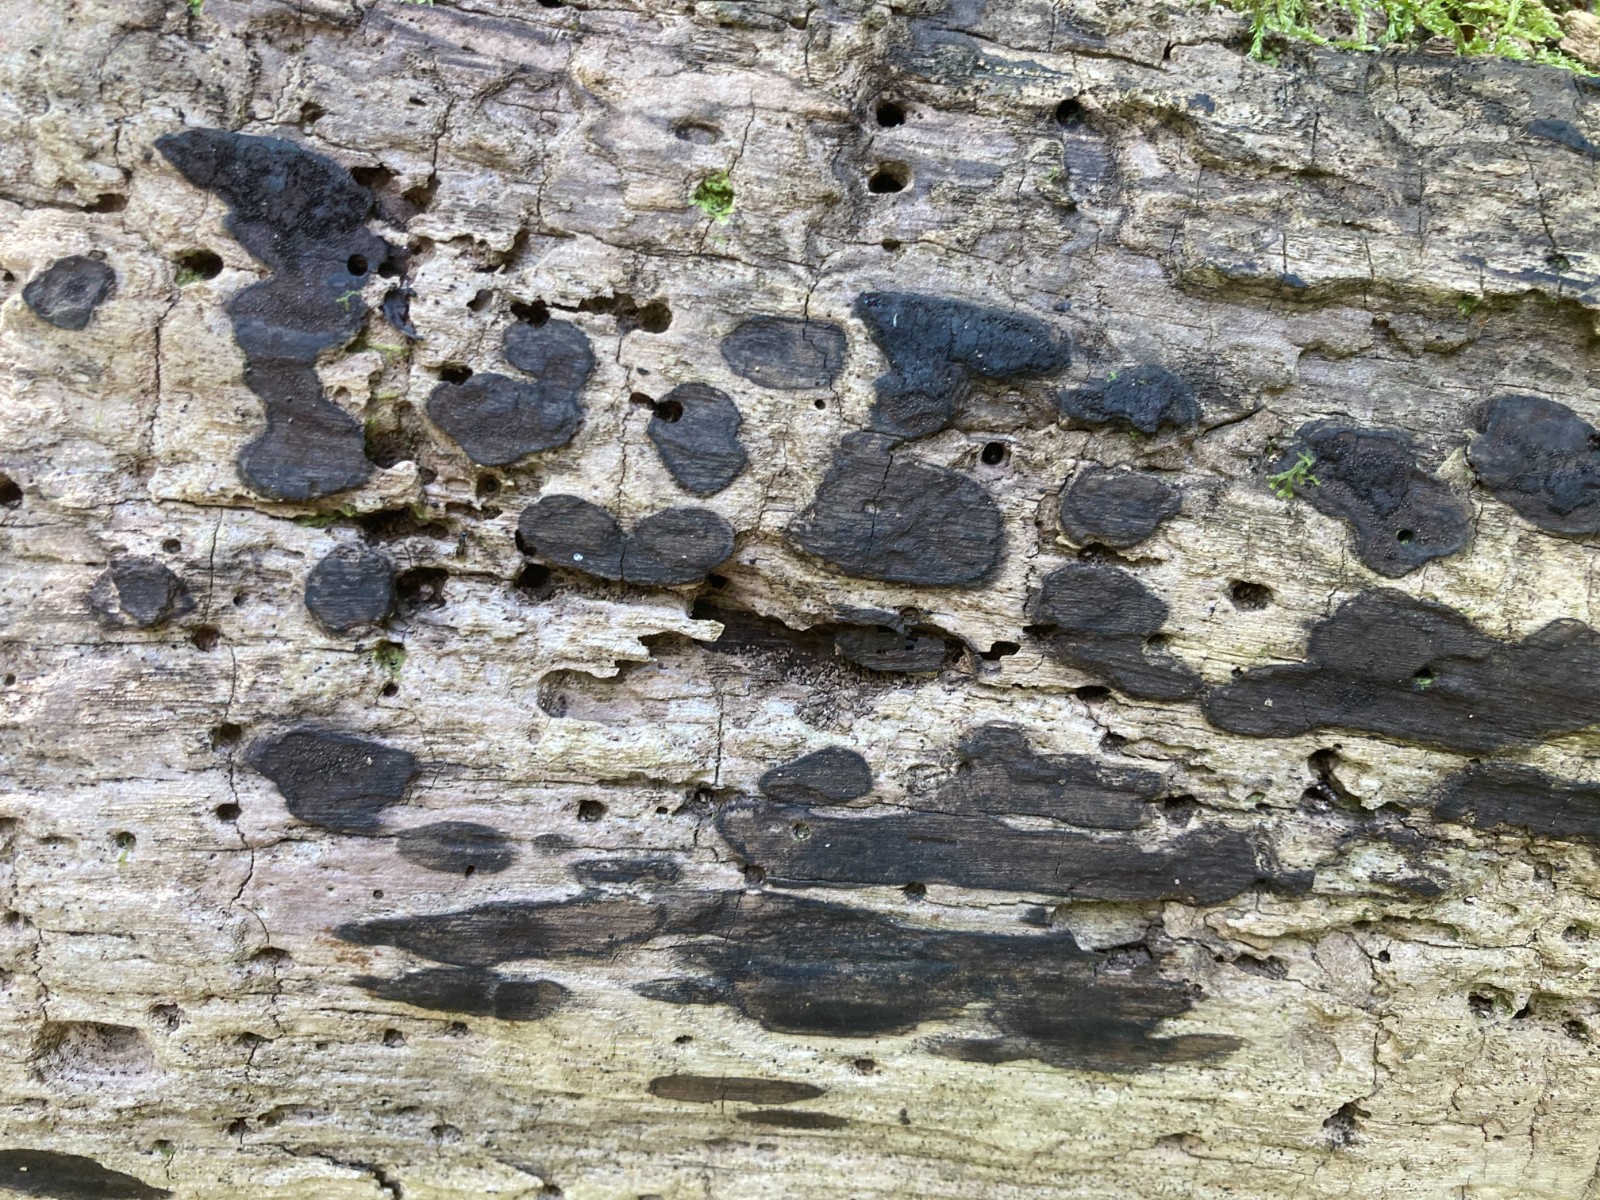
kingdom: Fungi
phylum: Ascomycota
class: Sordariomycetes
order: Xylariales
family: Hypoxylaceae
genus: Hypoxylon
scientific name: Hypoxylon petriniae
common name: nedsænket kulbær
